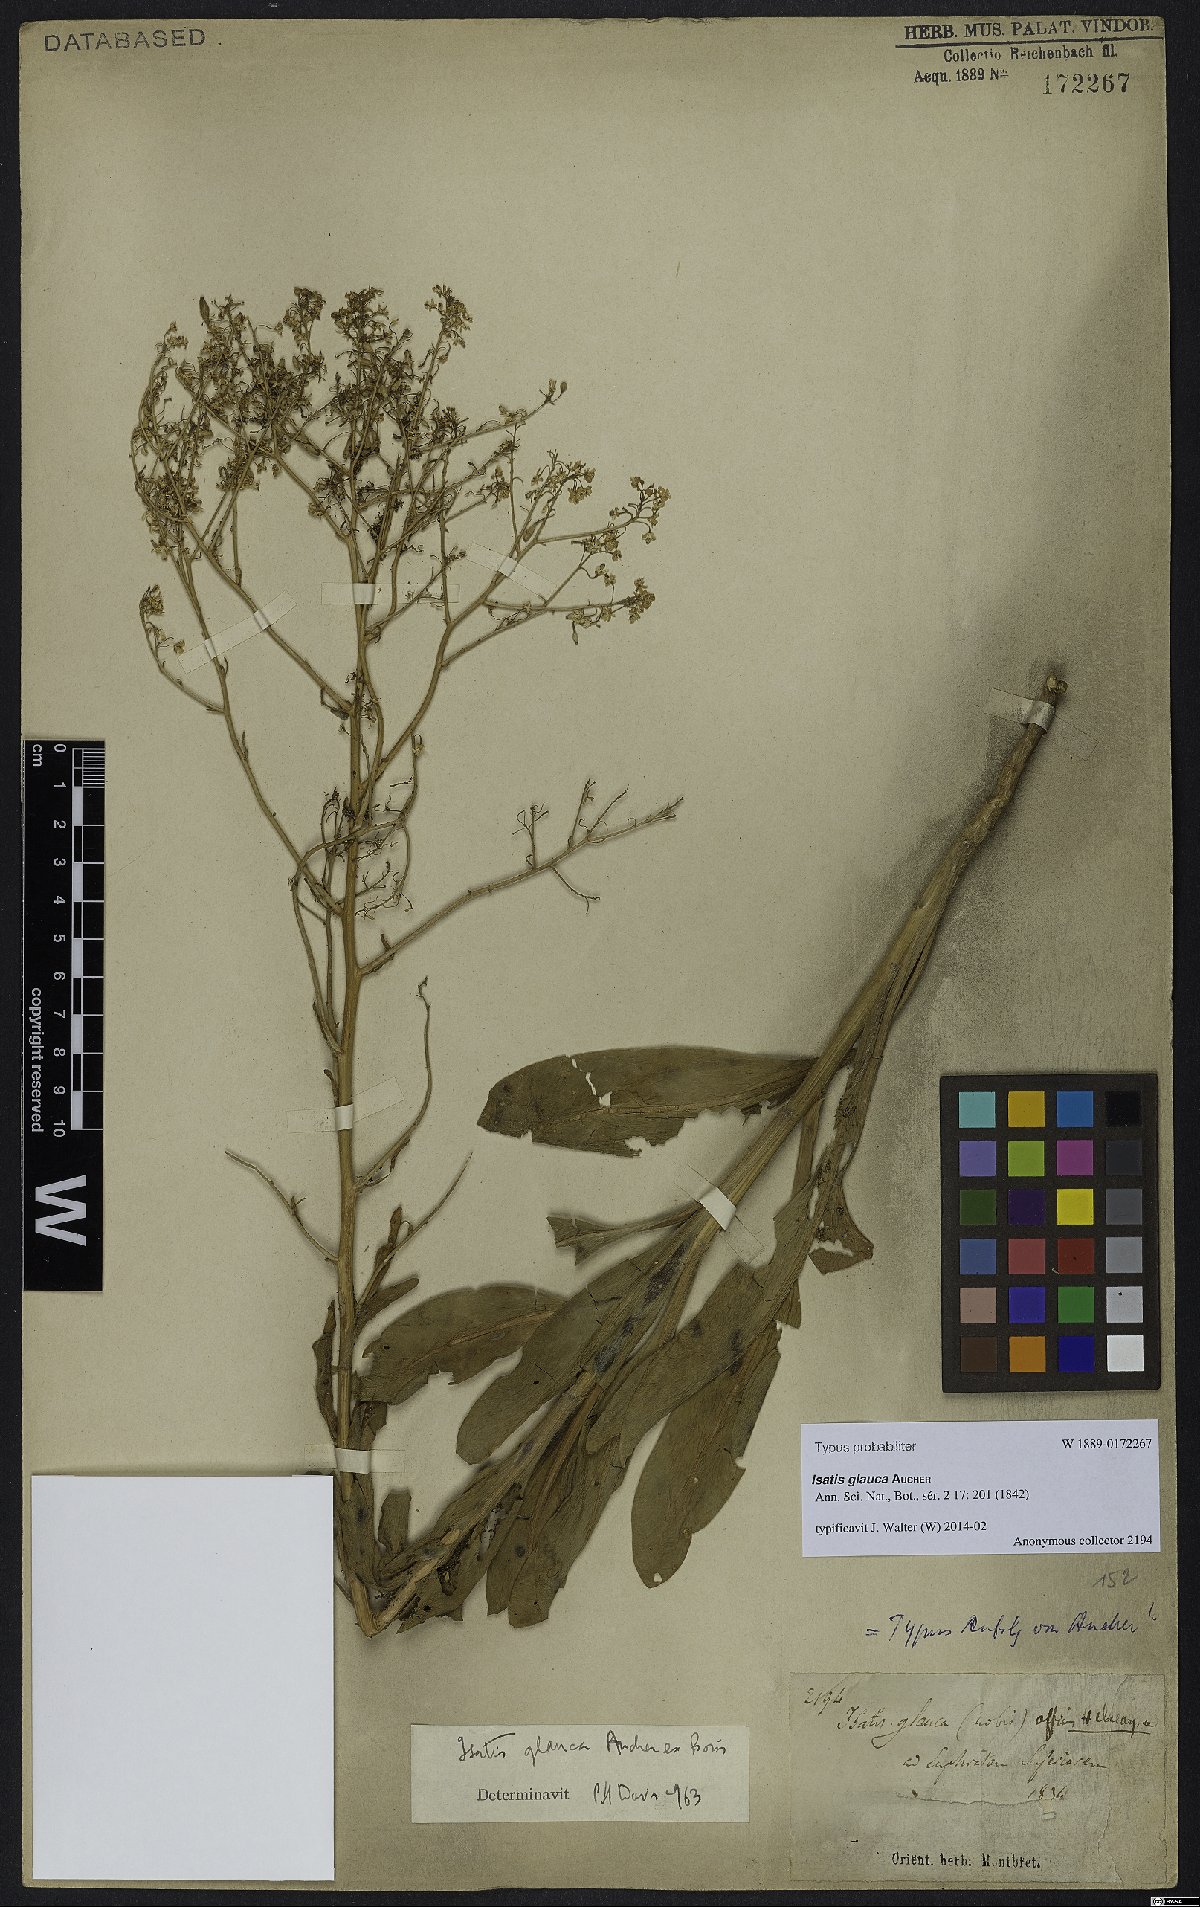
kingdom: Plantae
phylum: Tracheophyta
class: Magnoliopsida
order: Brassicales
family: Brassicaceae
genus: Isatis
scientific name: Isatis glauca
